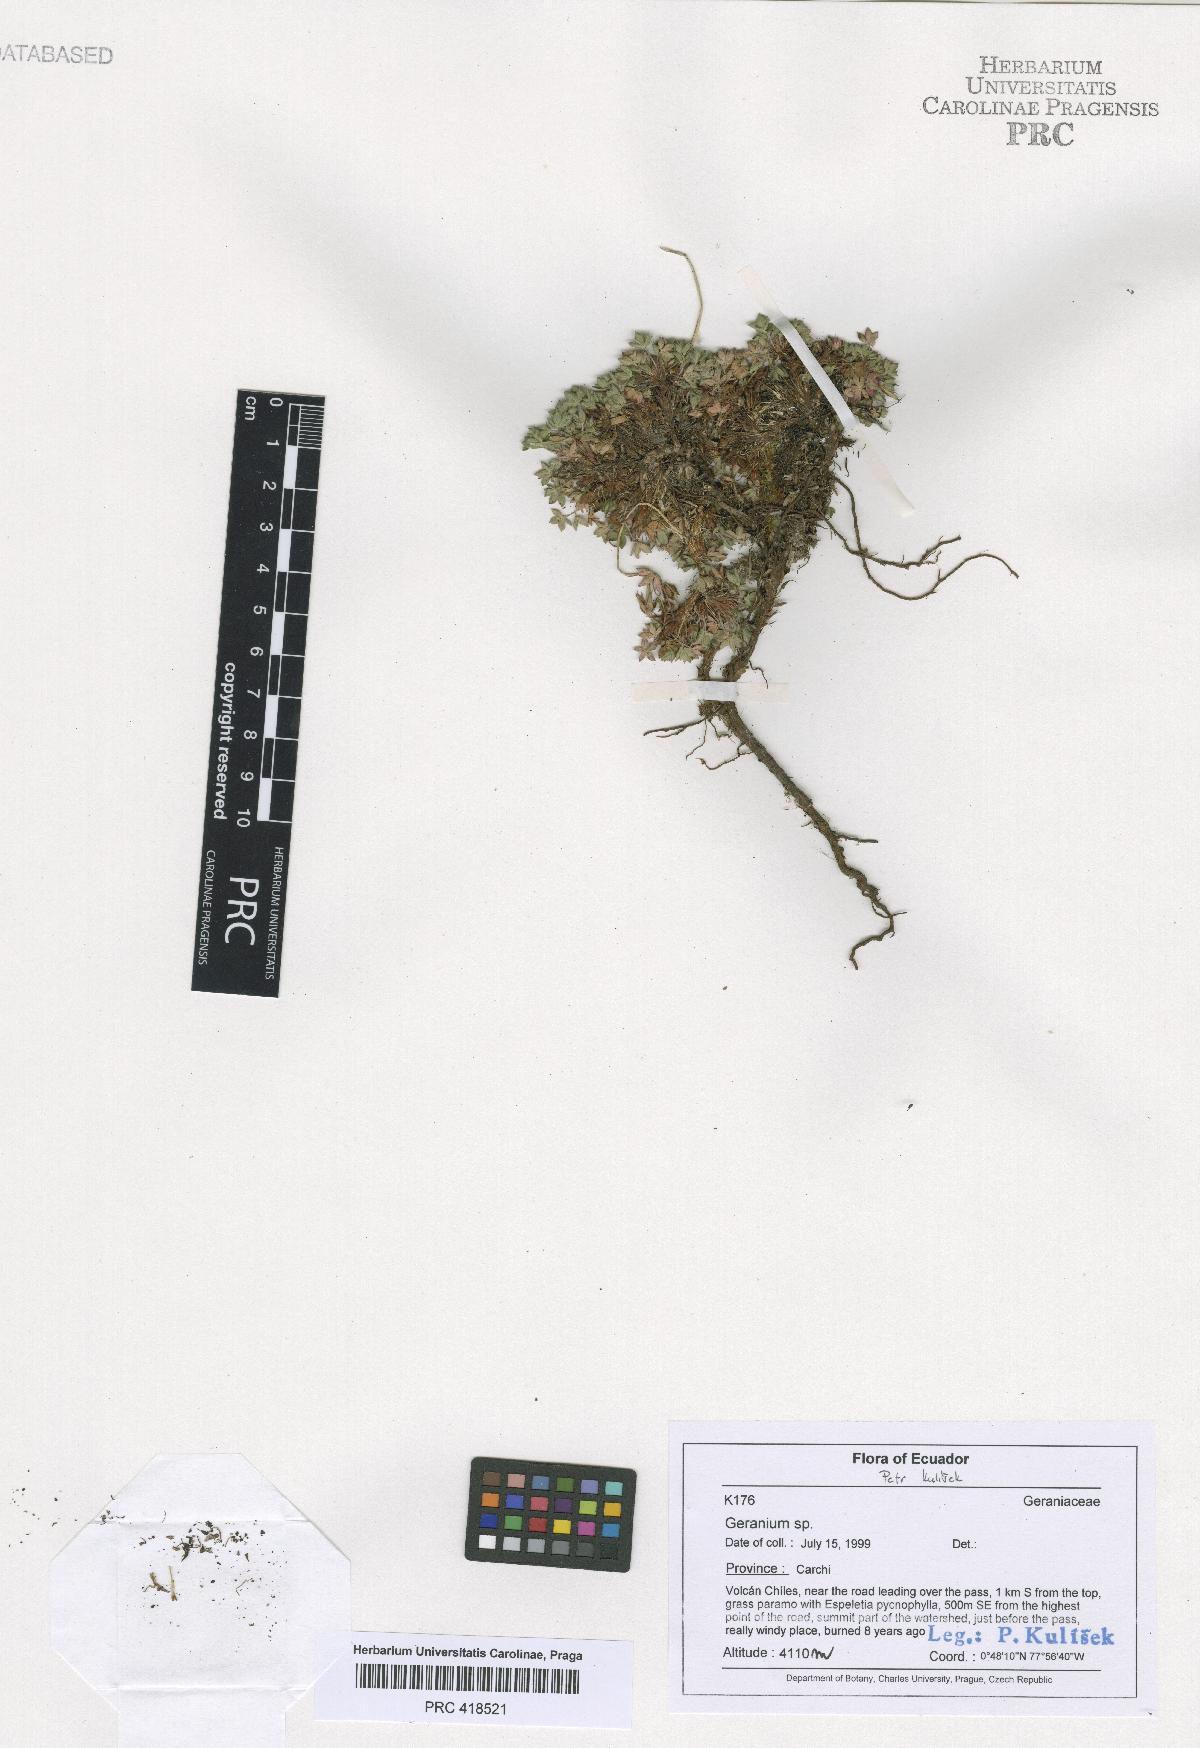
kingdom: Plantae
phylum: Tracheophyta
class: Magnoliopsida
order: Geraniales
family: Geraniaceae
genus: Geranium
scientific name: Geranium sibbaldioides
